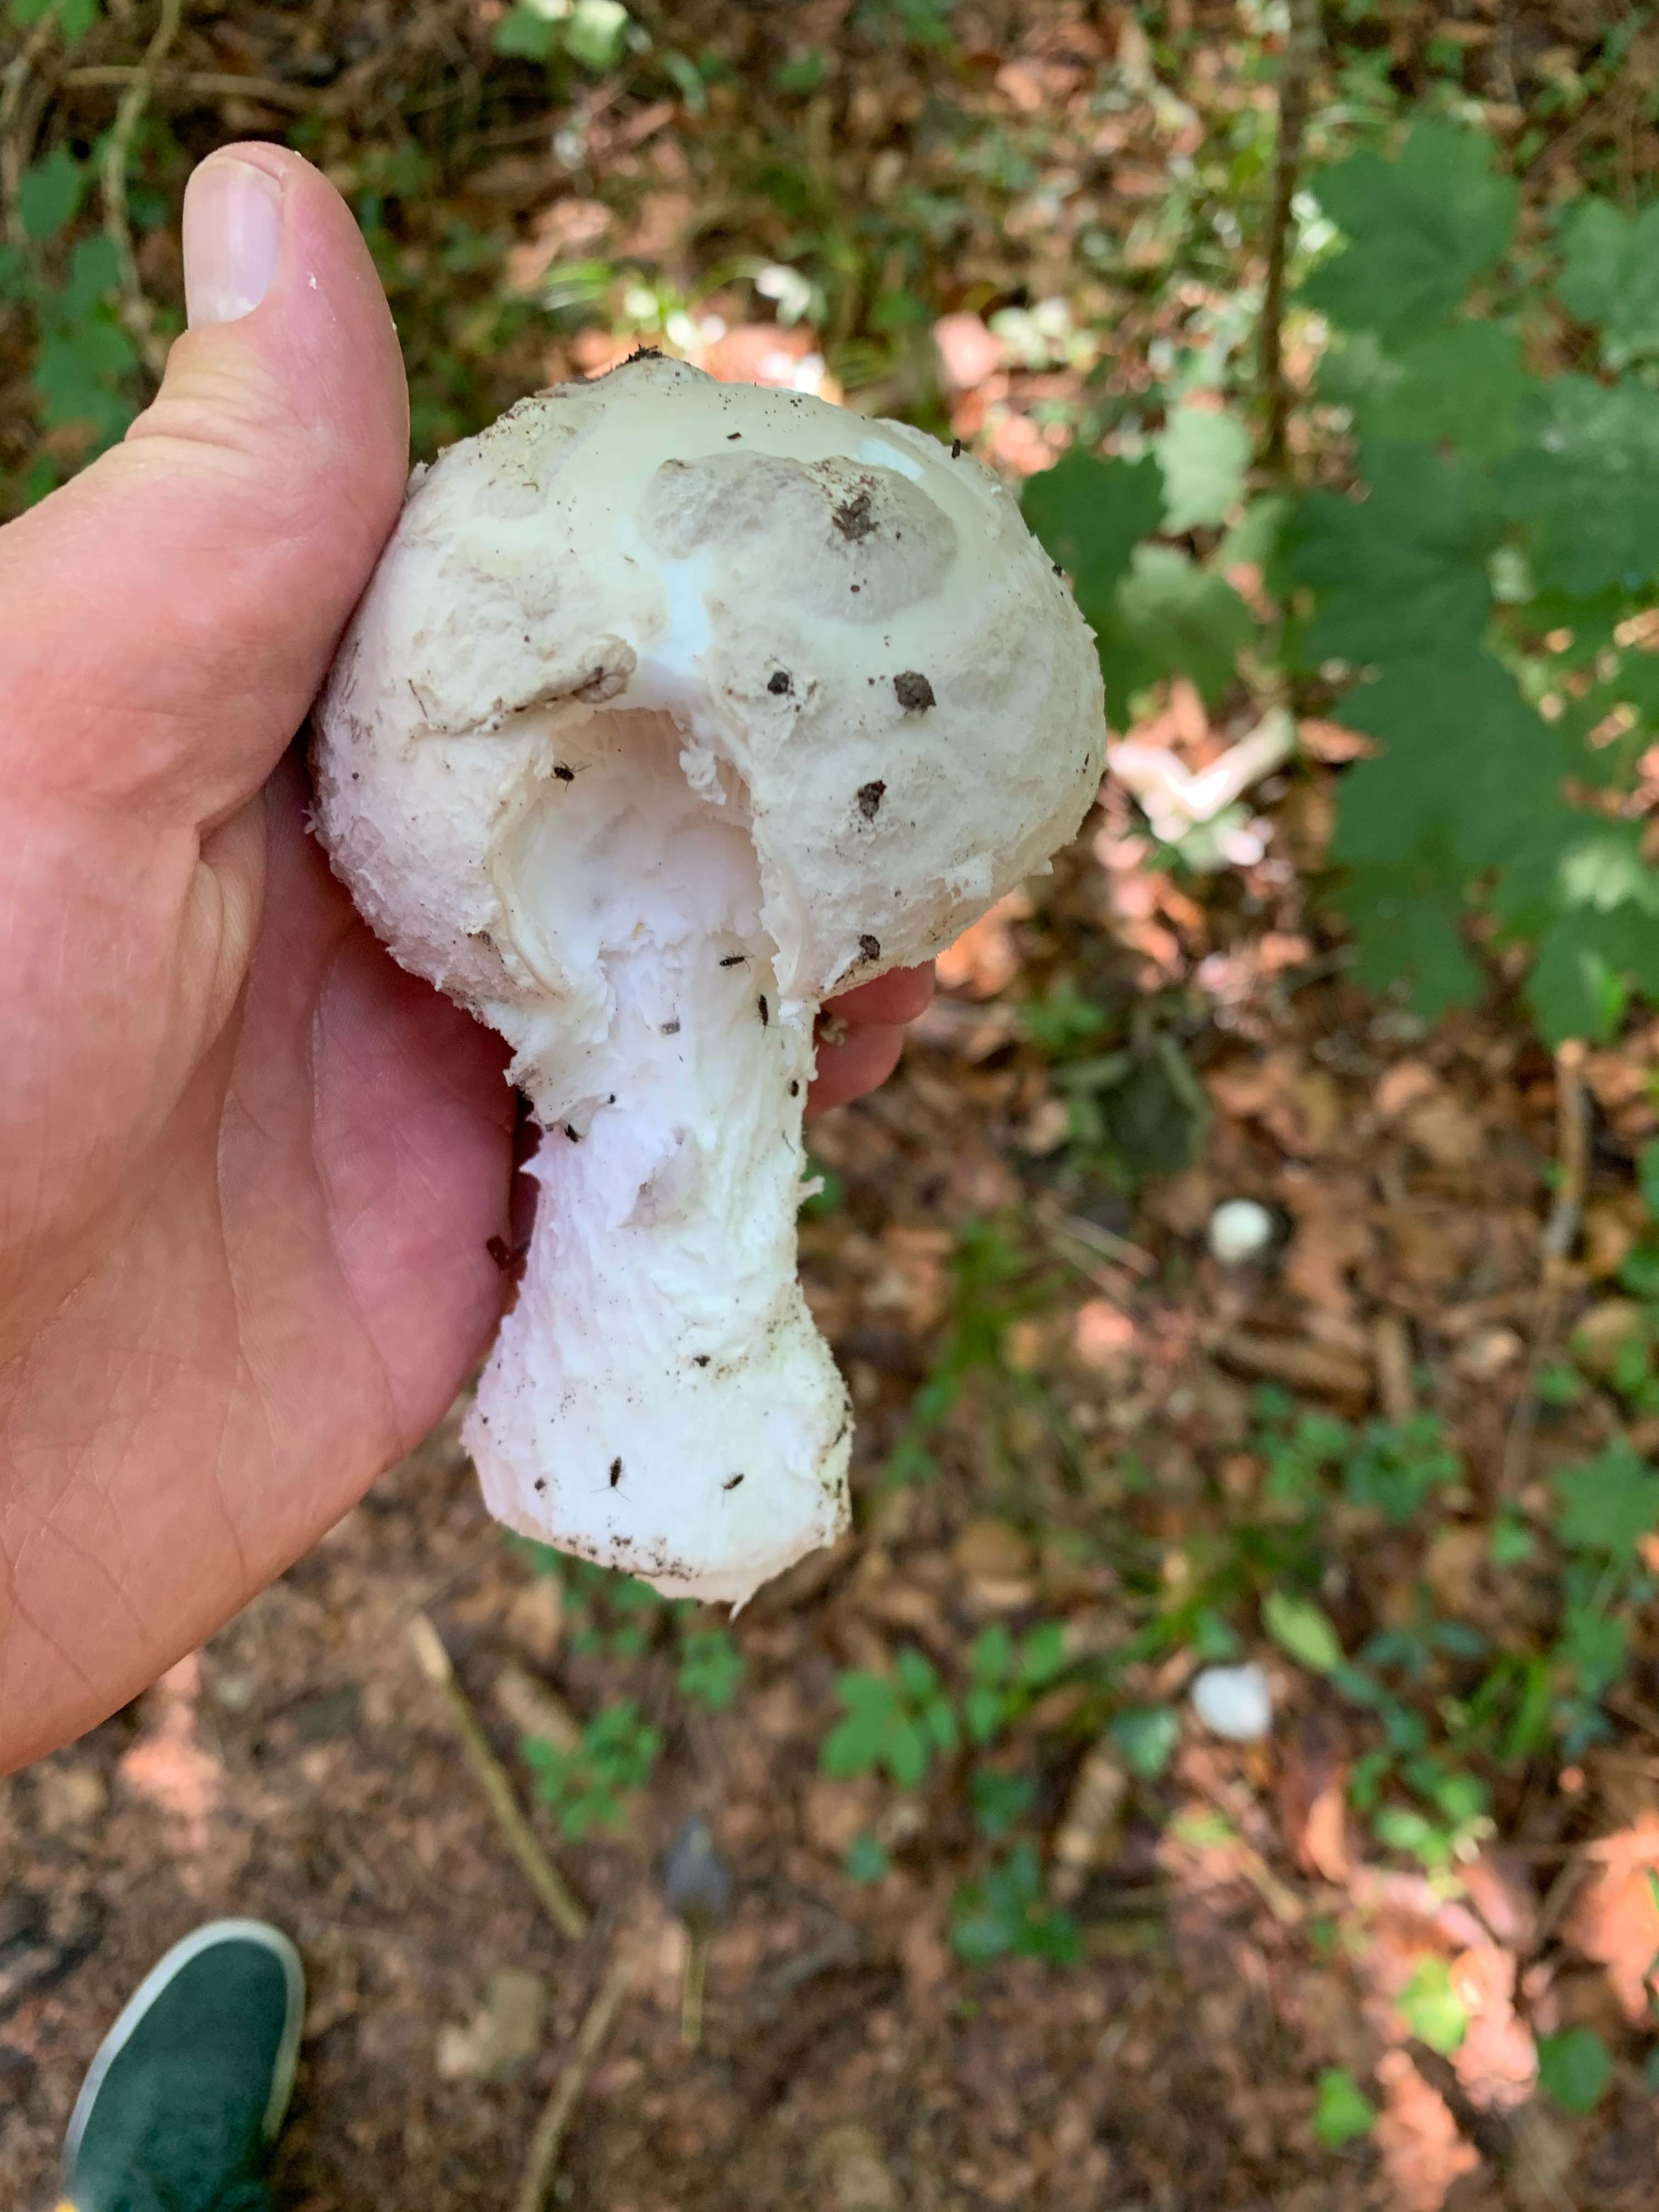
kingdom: Fungi
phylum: Basidiomycota
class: Agaricomycetes
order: Agaricales
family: Amanitaceae
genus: Amanita
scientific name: Amanita
